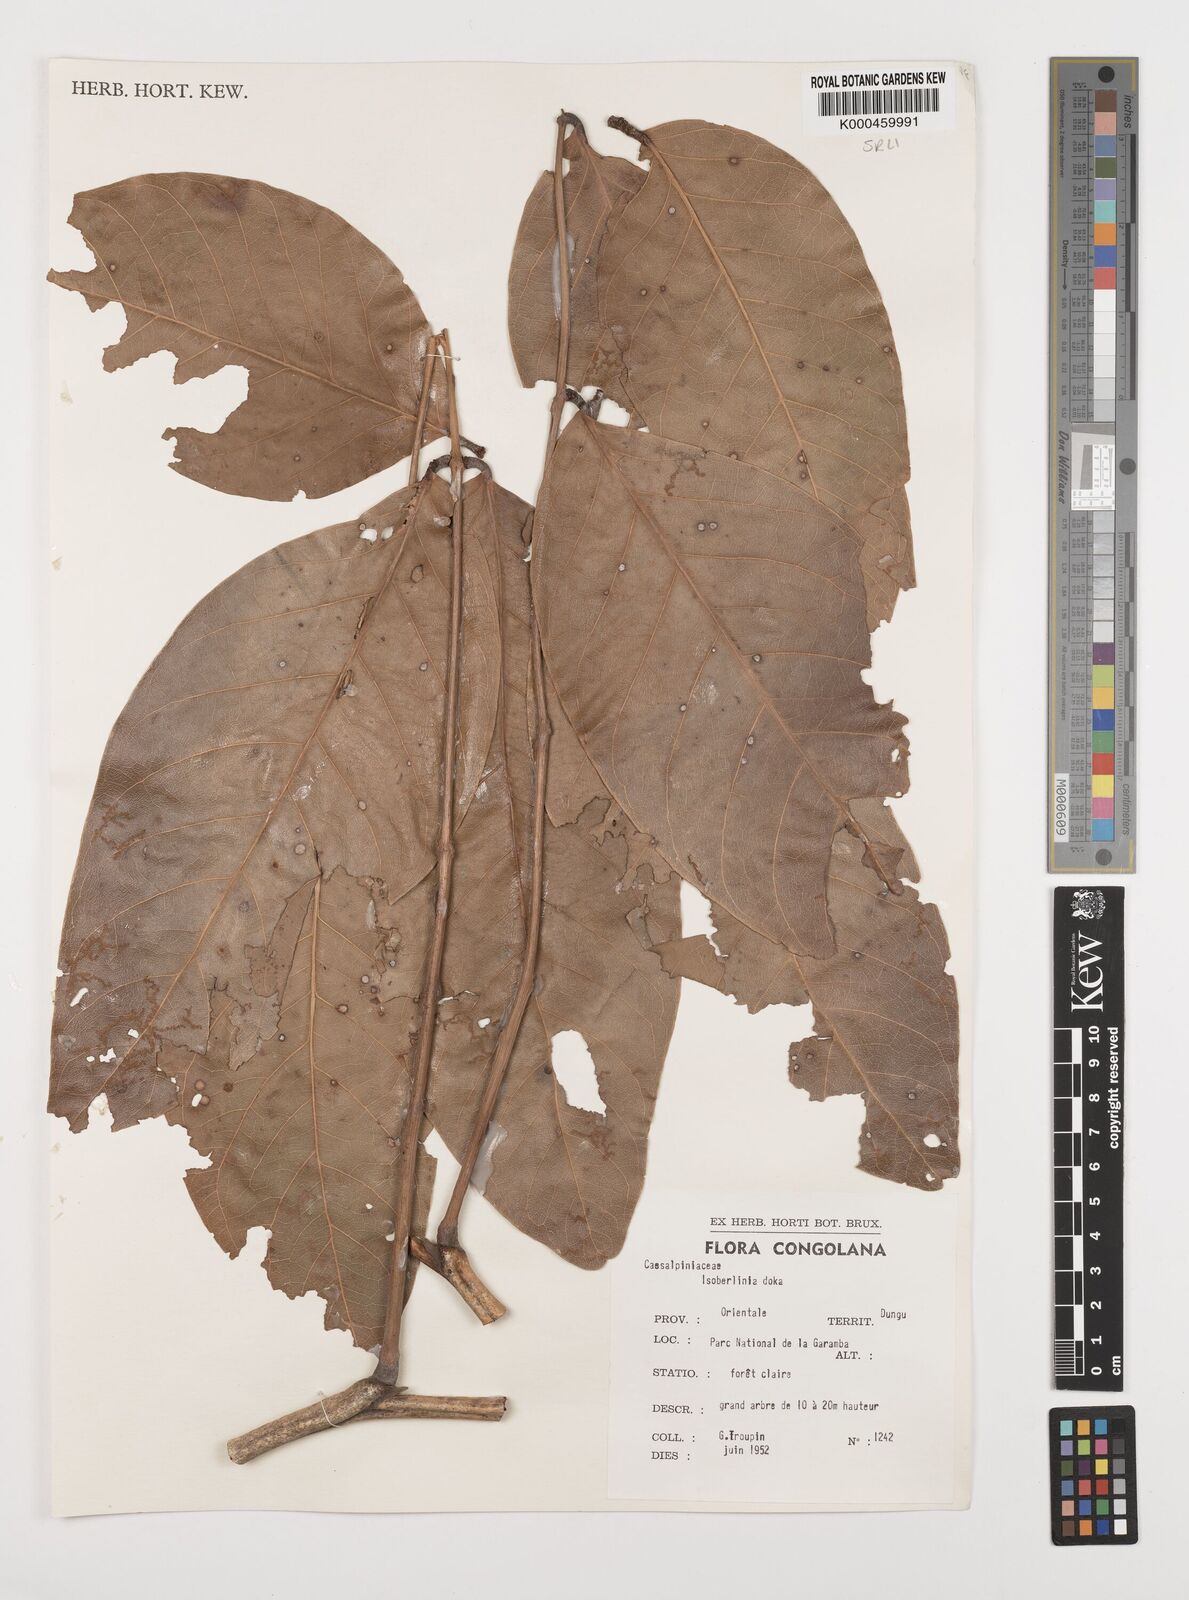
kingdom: Plantae
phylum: Tracheophyta
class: Magnoliopsida
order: Fabales
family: Fabaceae
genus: Isoberlinia
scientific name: Isoberlinia doka
